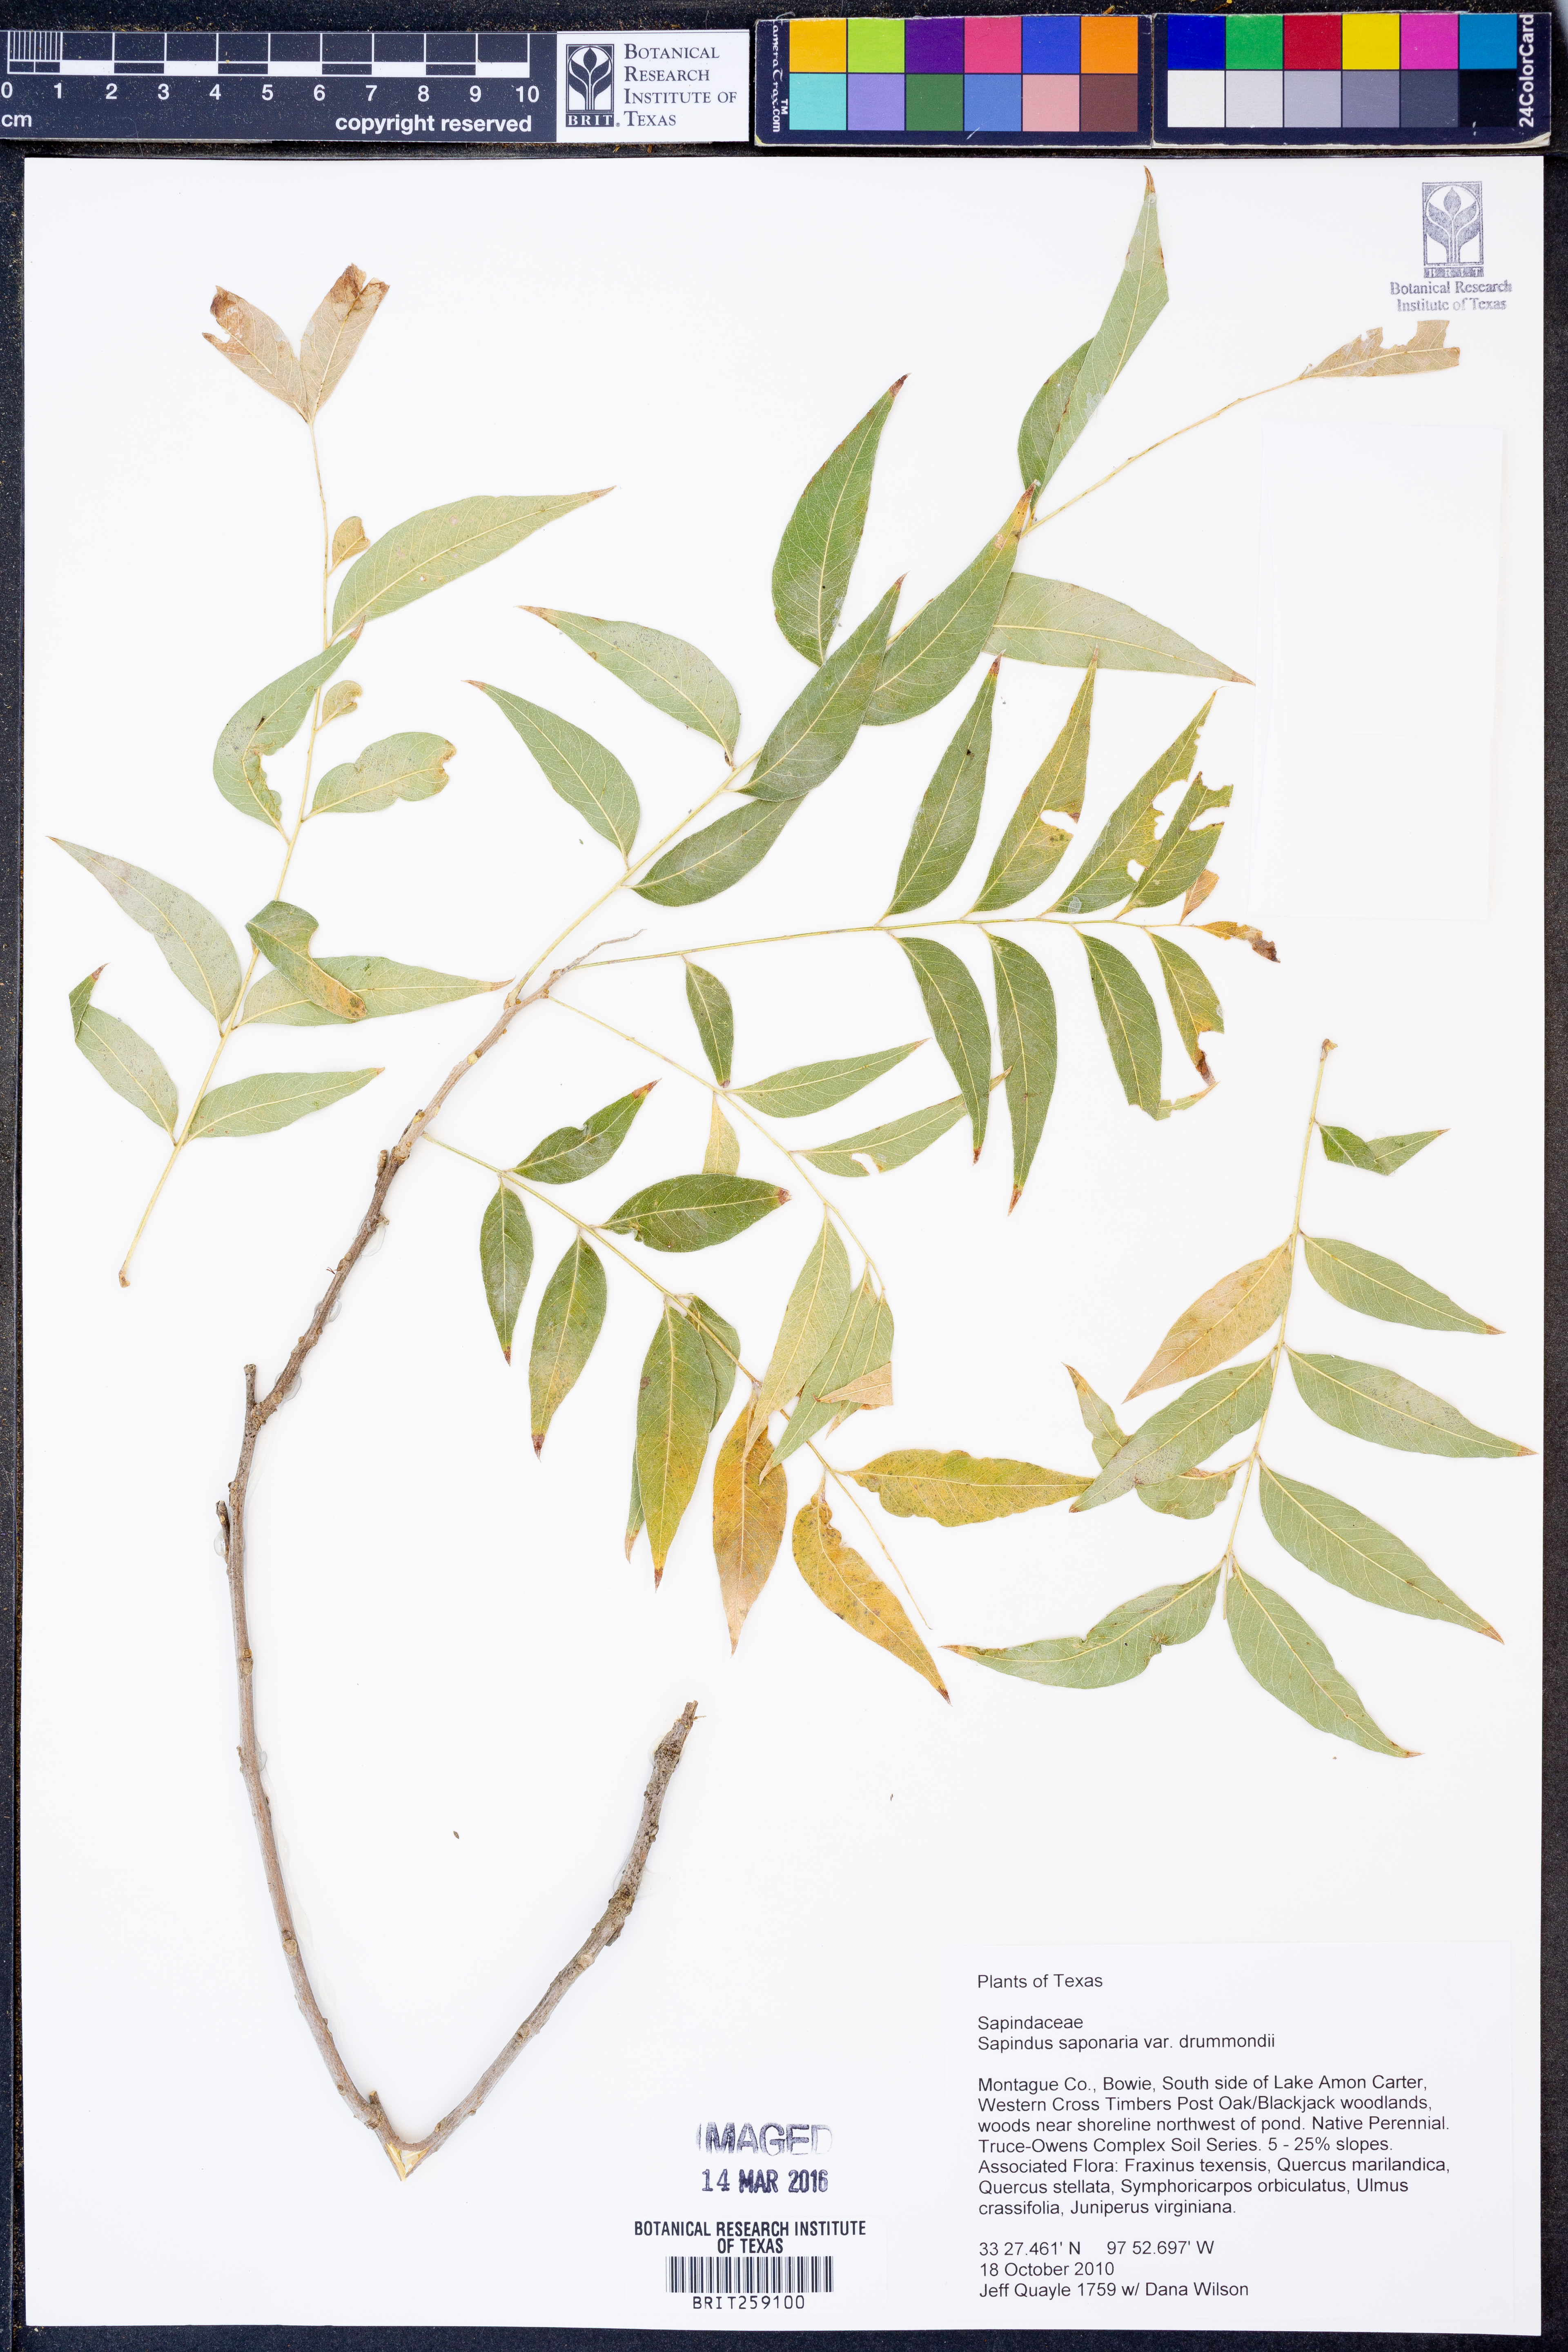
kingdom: Plantae
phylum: Tracheophyta
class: Magnoliopsida
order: Sapindales
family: Sapindaceae
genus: Sapindus
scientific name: Sapindus drummondii
